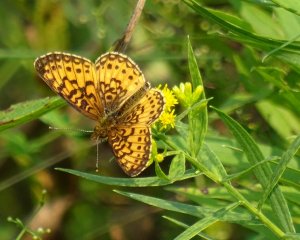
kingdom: Animalia
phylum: Arthropoda
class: Insecta
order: Lepidoptera
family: Nymphalidae
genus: Boloria
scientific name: Boloria selene
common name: Silver-bordered Fritillary
